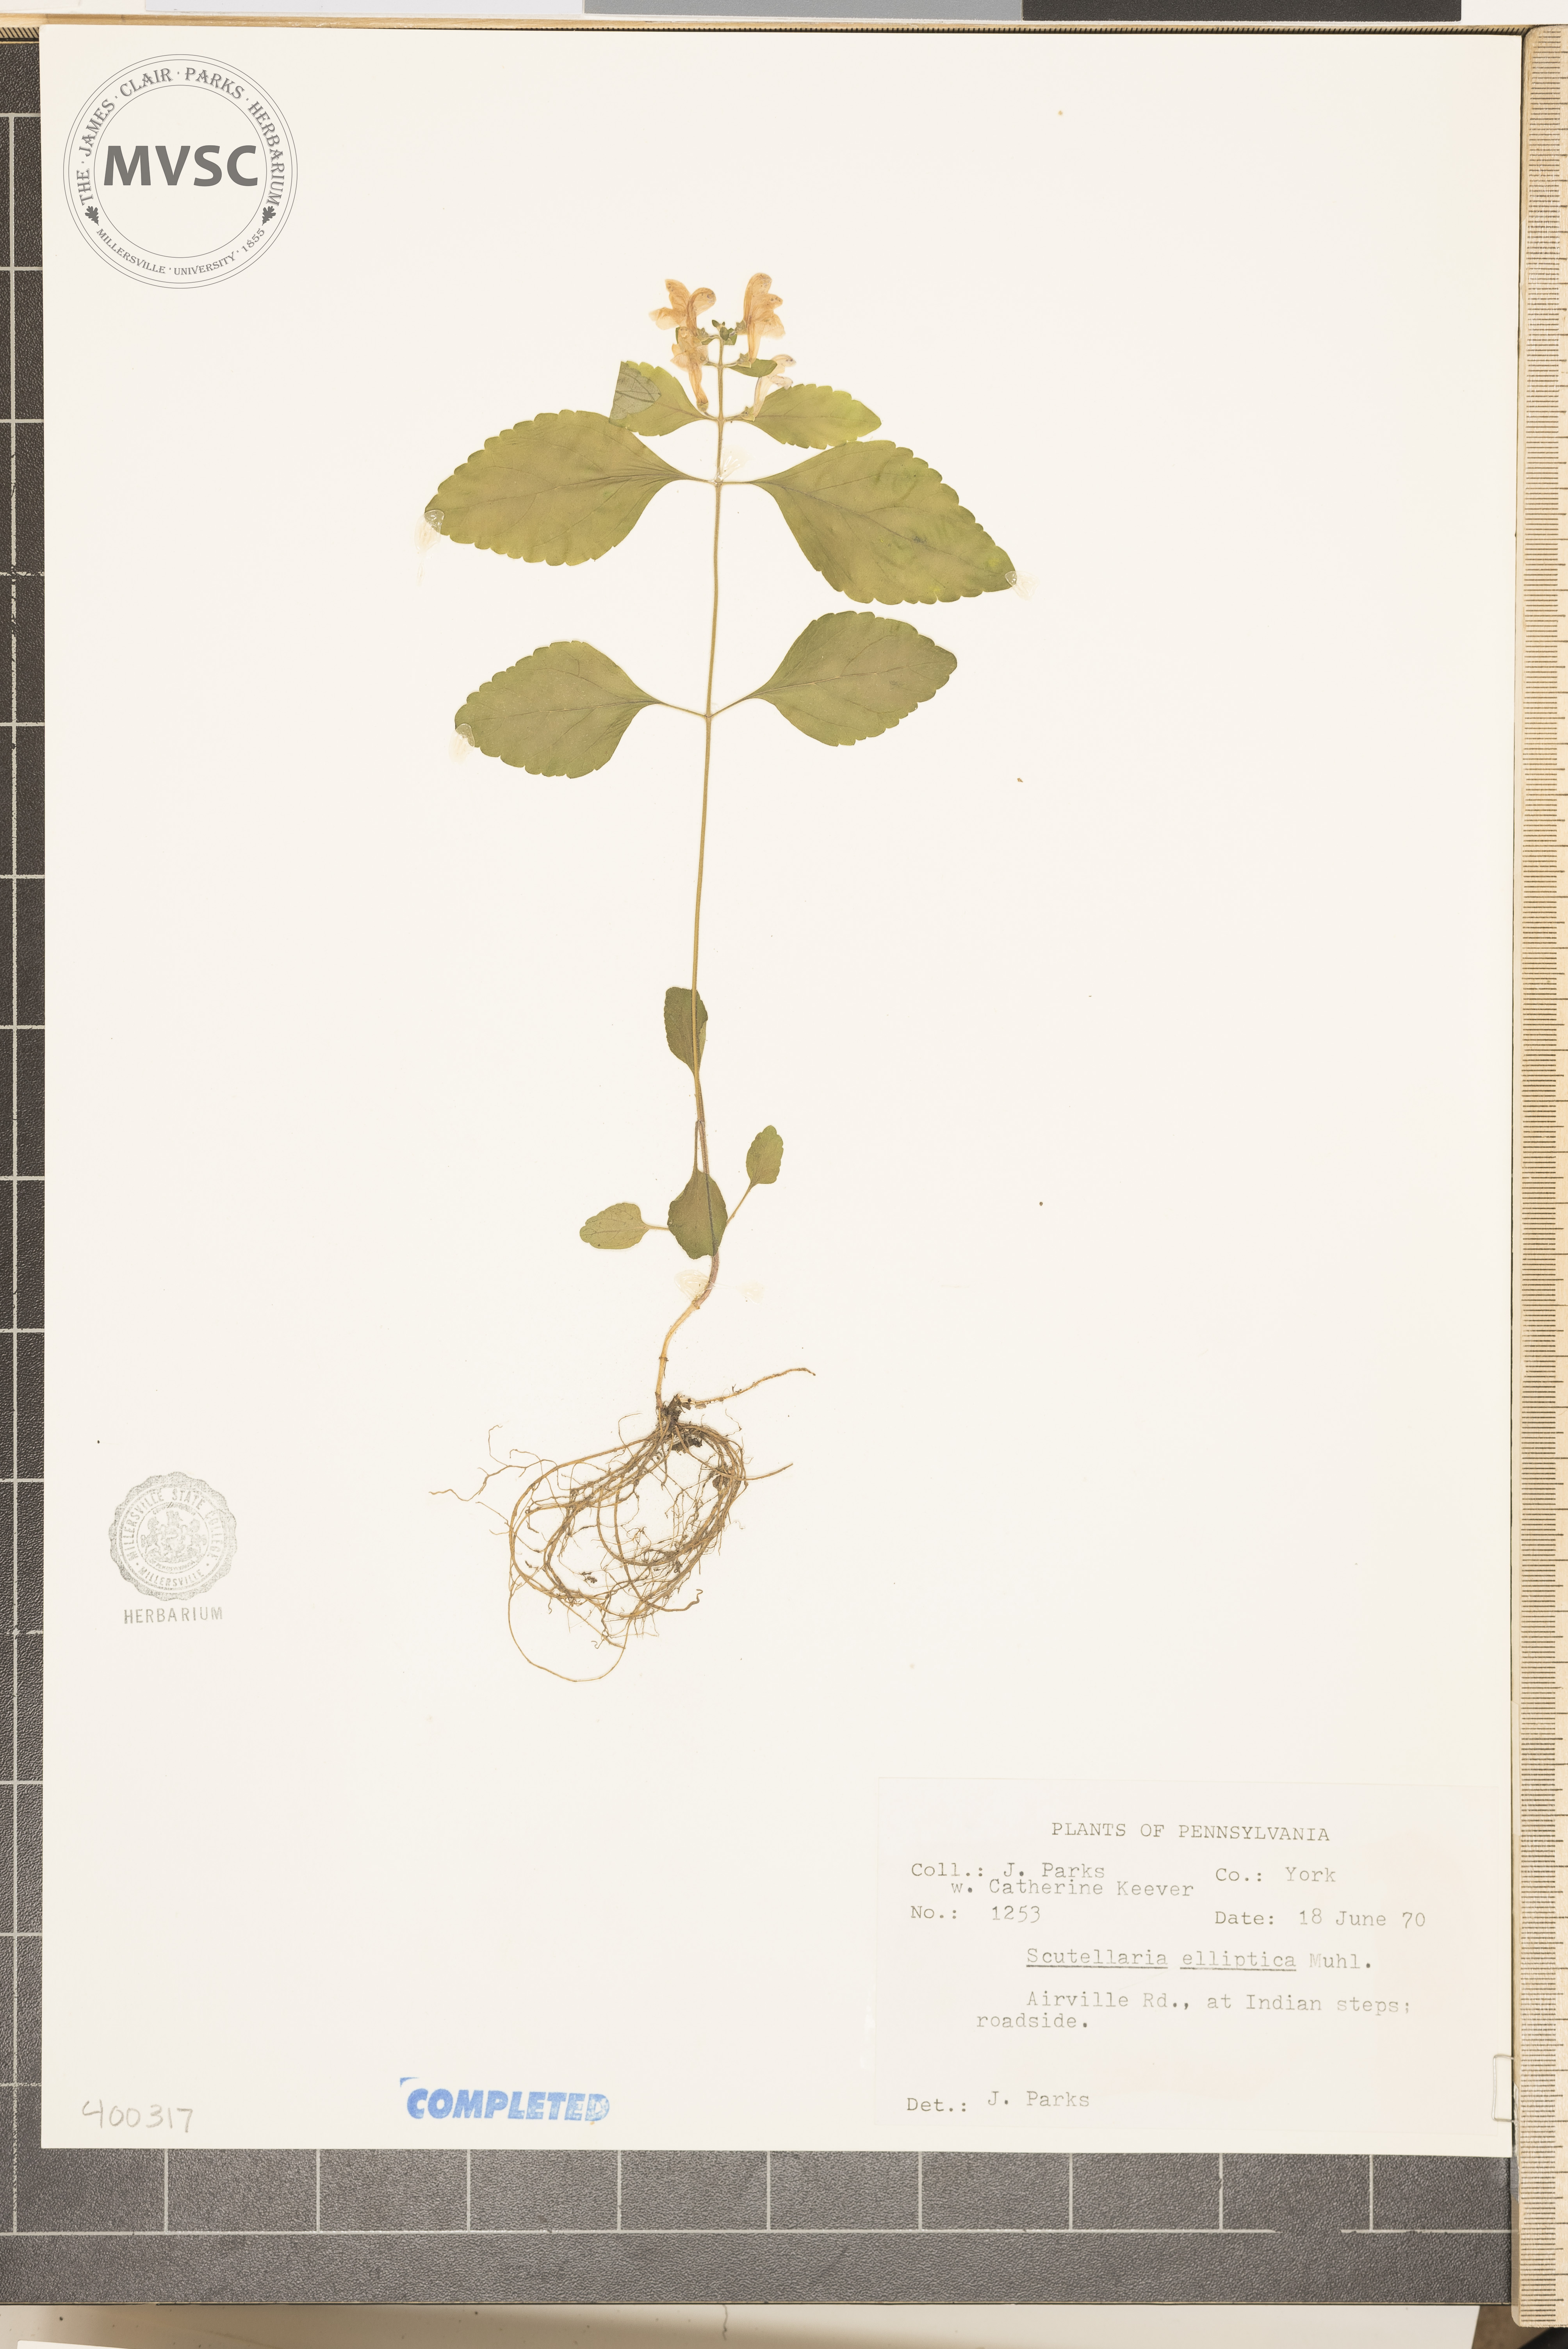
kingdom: Plantae
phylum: Tracheophyta
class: Magnoliopsida
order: Lamiales
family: Lamiaceae
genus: Scutellaria
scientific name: Scutellaria elliptica
